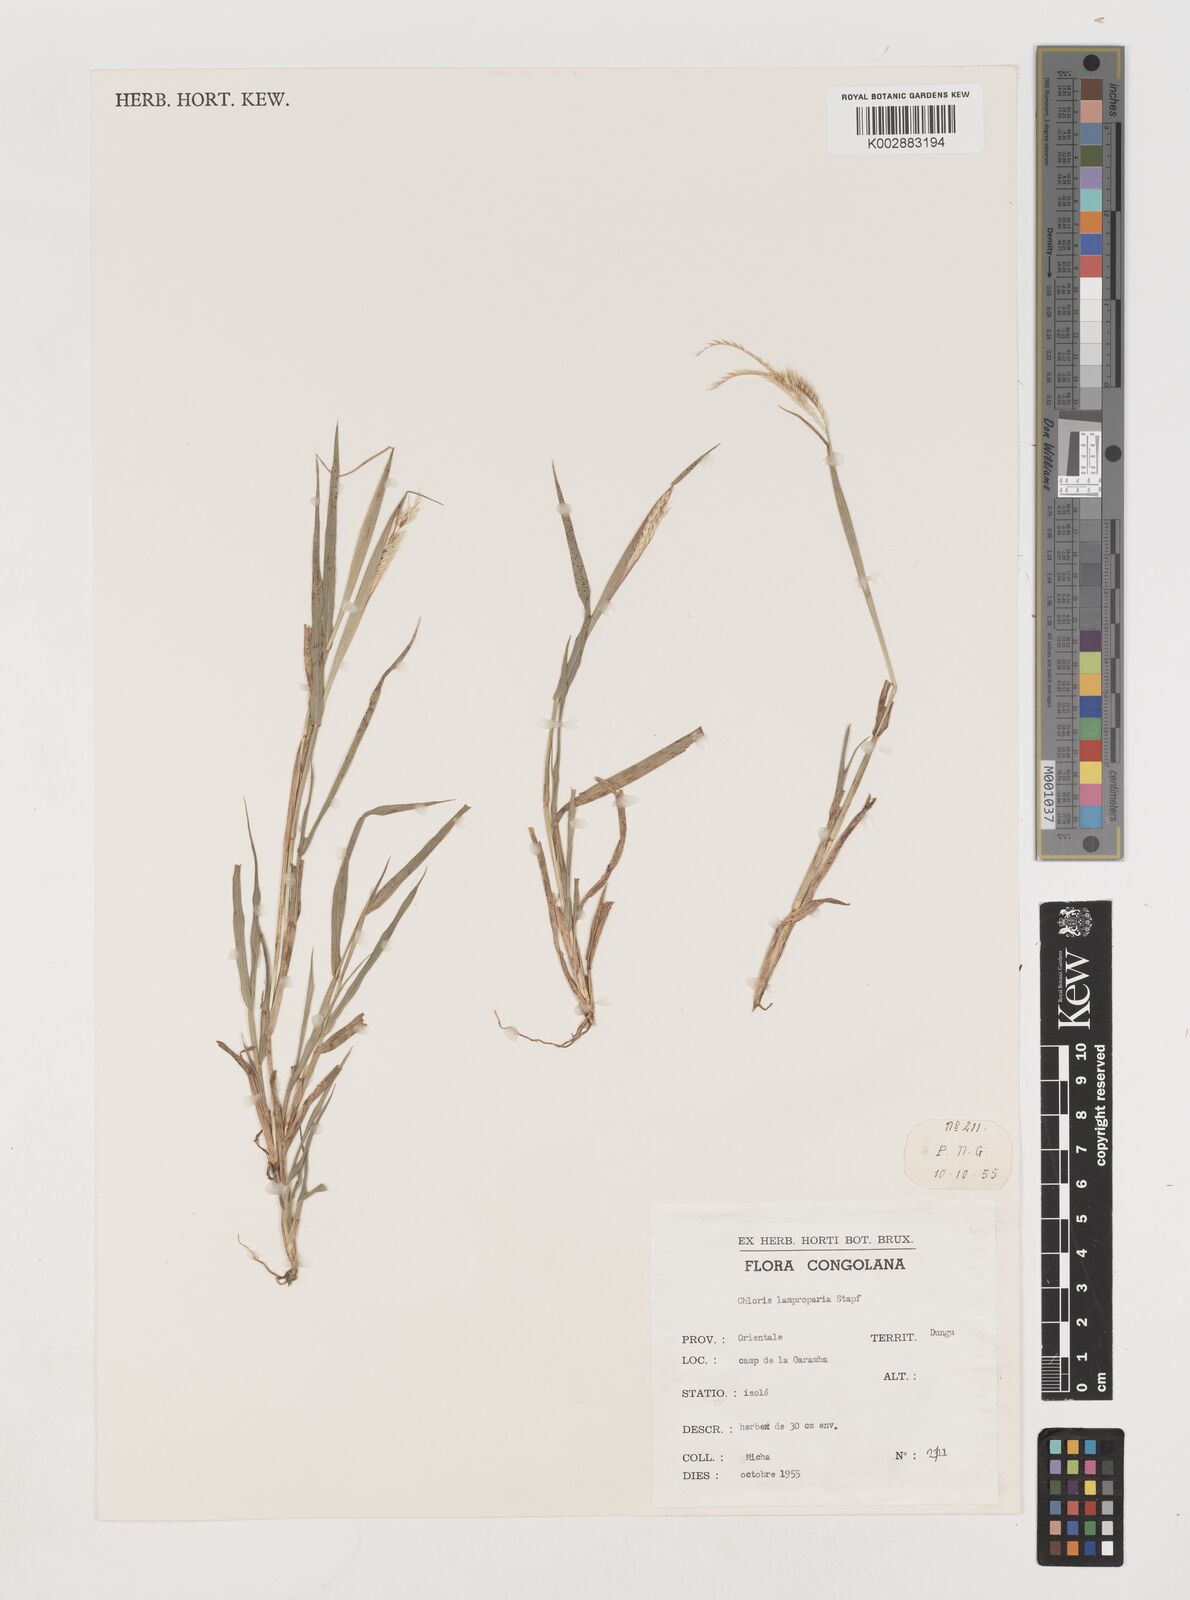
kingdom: Plantae
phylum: Tracheophyta
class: Liliopsida
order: Poales
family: Poaceae
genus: Stapfochloa
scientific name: Stapfochloa lamproparia
